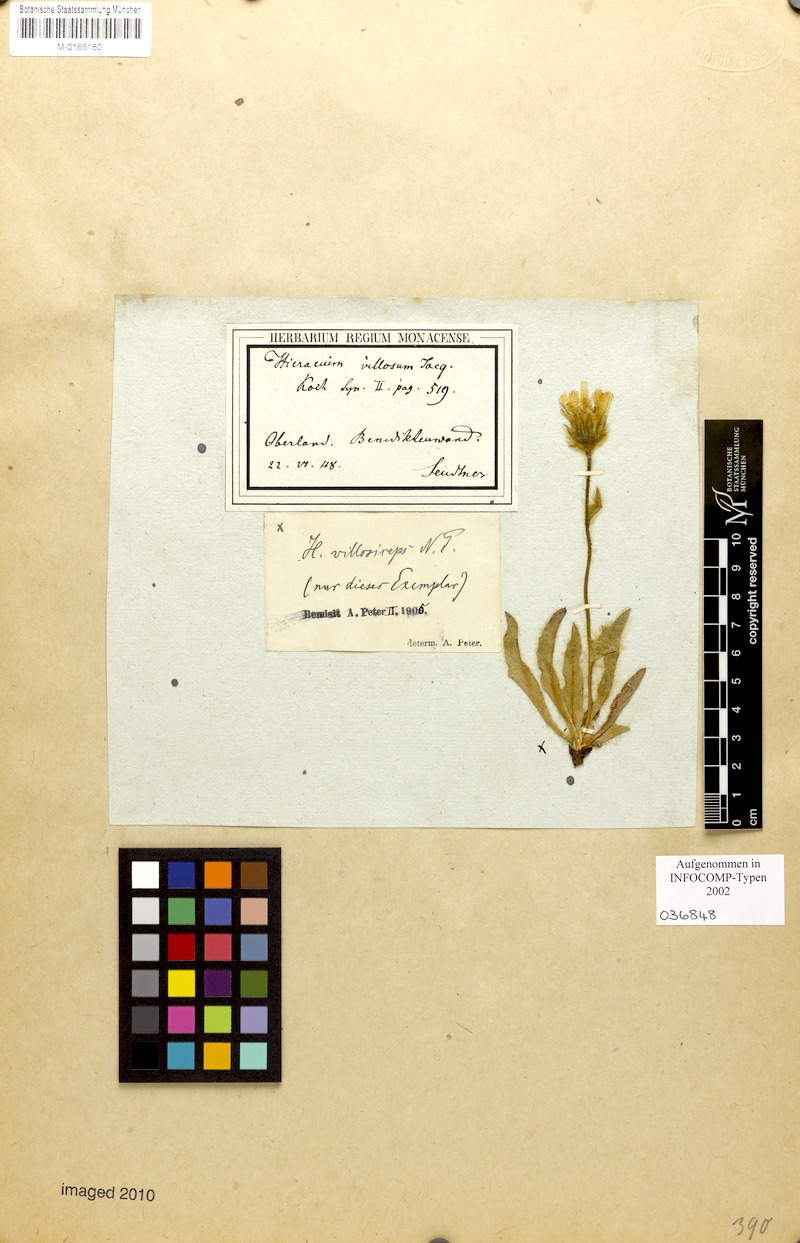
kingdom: Plantae
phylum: Tracheophyta
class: Magnoliopsida
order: Asterales
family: Asteraceae
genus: Hieracium
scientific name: Hieracium pilosum
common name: Fimbriate-pitted hawkweed
